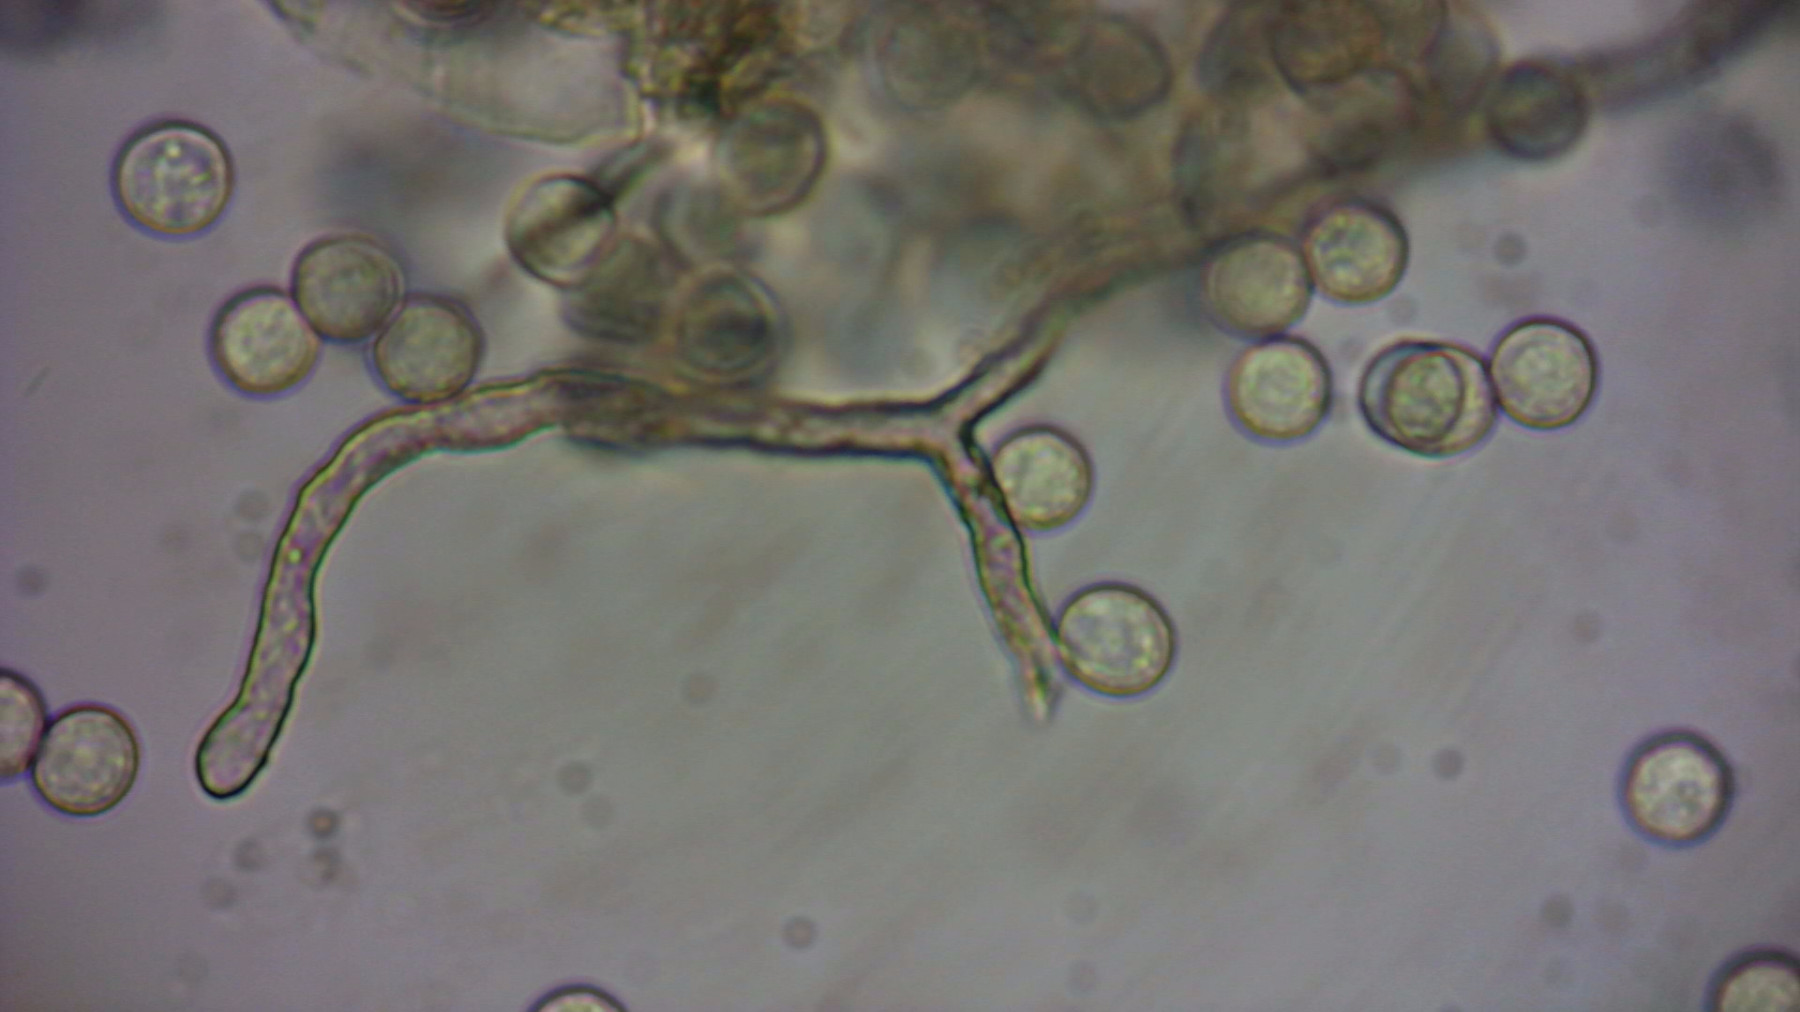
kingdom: Protozoa
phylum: Amoebozoa
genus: Arcyria
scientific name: Arcyria
